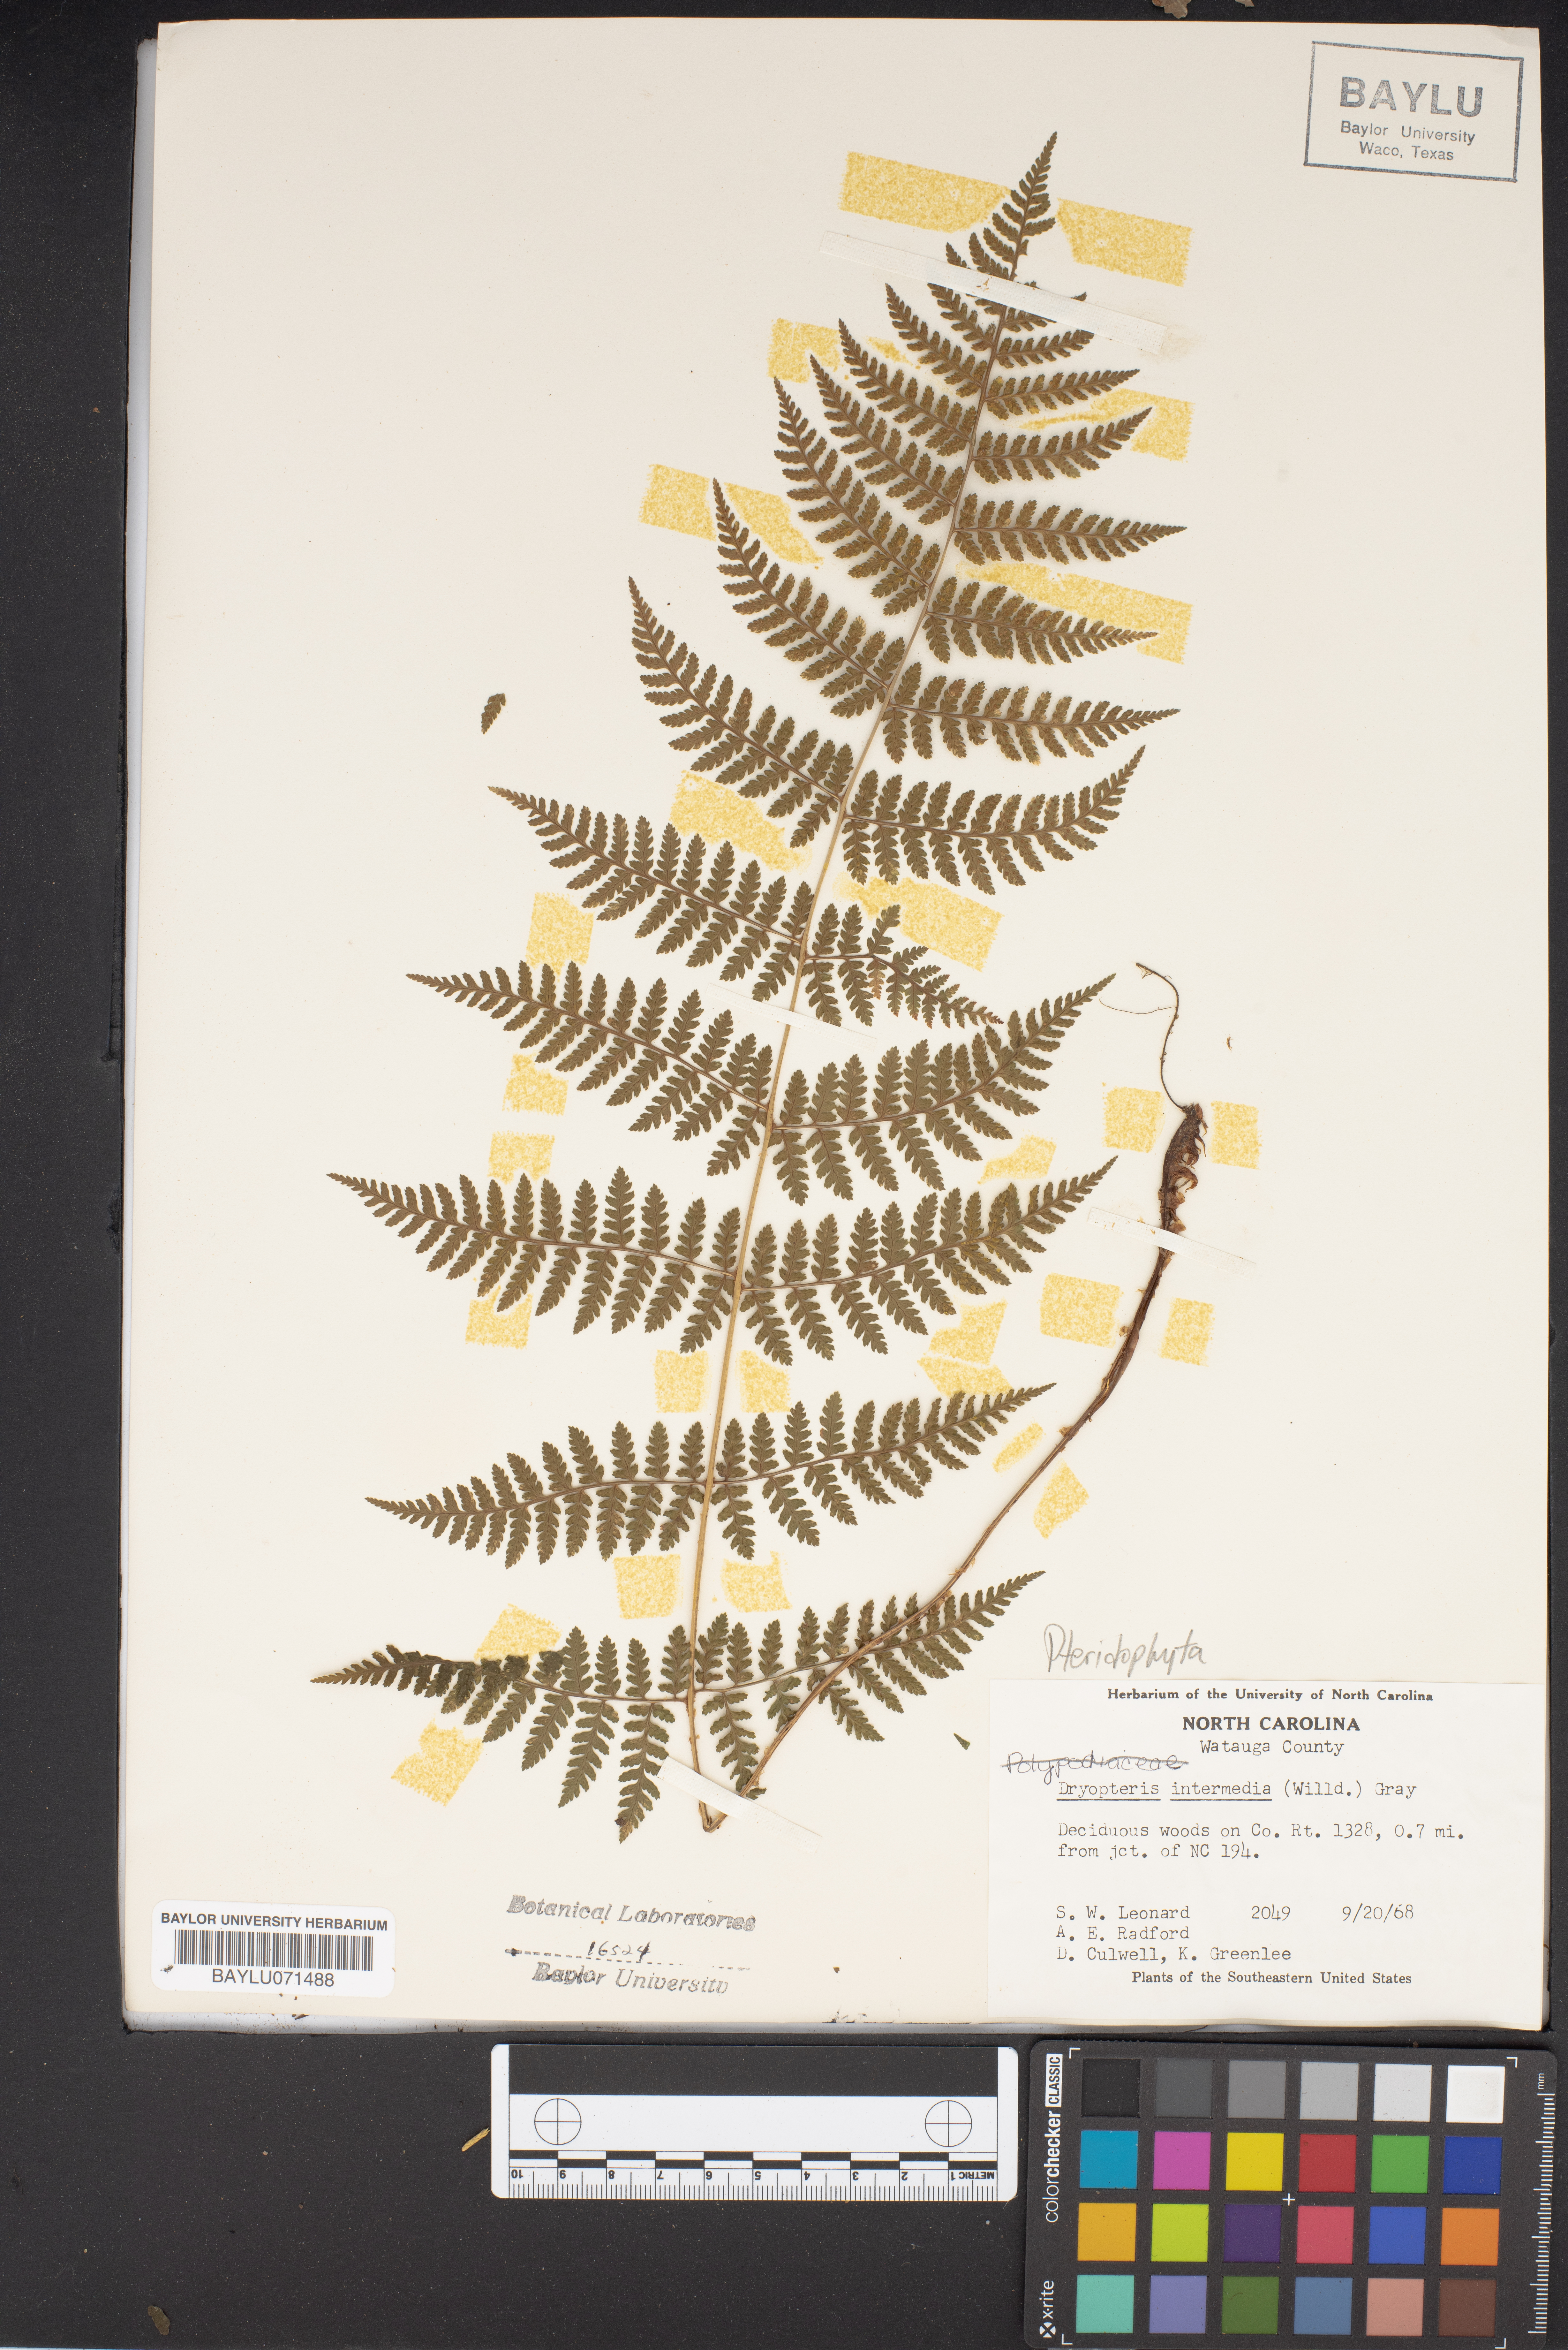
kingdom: Plantae
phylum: Tracheophyta
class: Polypodiopsida
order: Polypodiales
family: Dryopteridaceae
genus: Dryopteris
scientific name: Dryopteris intermedia
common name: Evergreen wood fern
